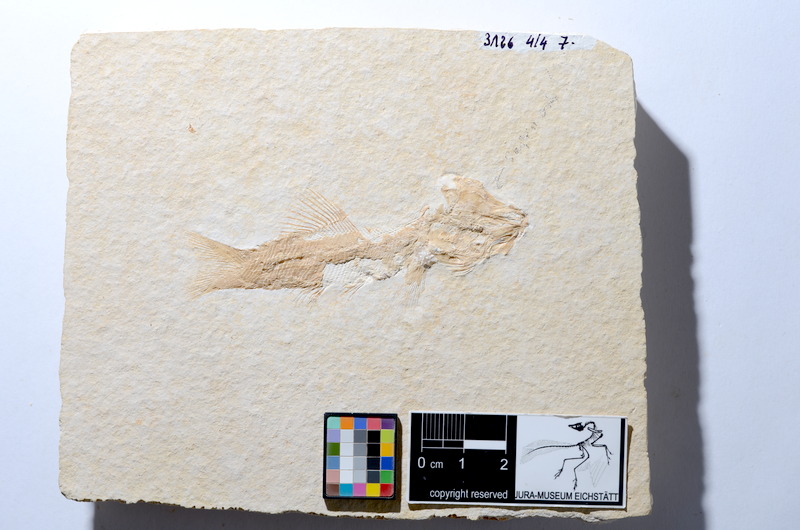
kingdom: Animalia
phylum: Chordata
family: Ophiopsiellidae
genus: Furo
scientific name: Furo longiserratus
